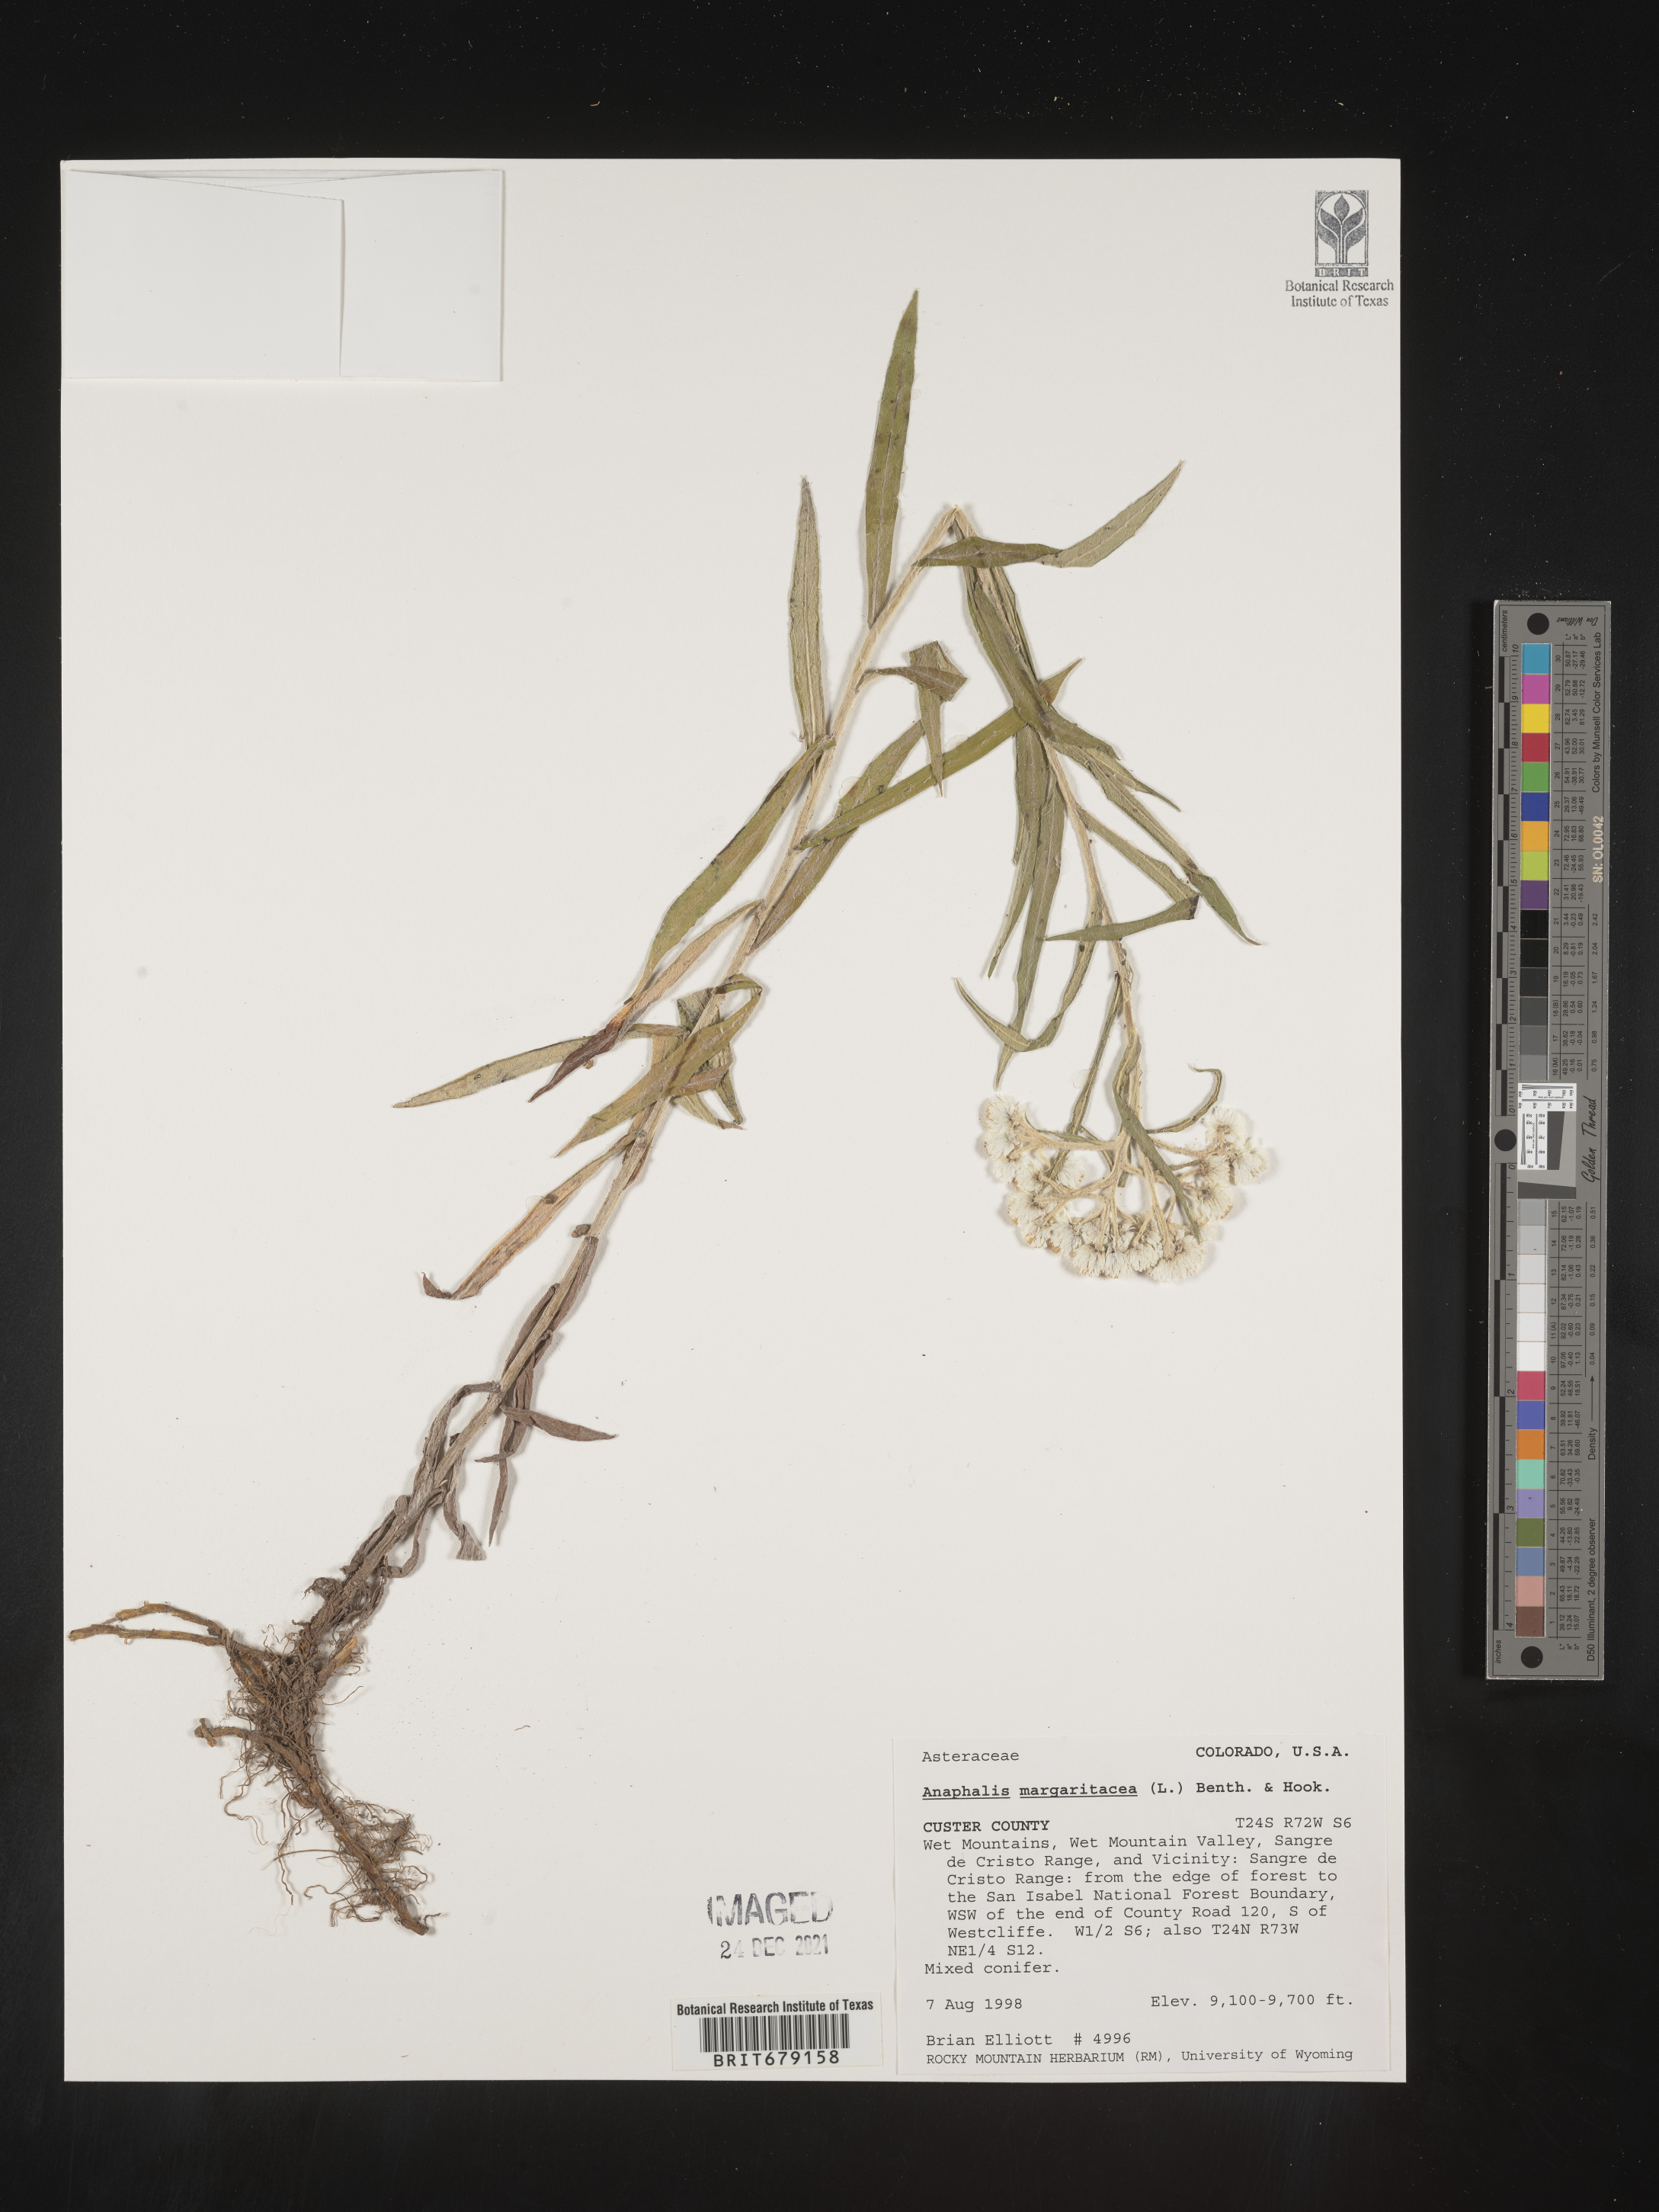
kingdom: Plantae
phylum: Tracheophyta
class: Magnoliopsida
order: Asterales
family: Asteraceae
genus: Anaphalis
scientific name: Anaphalis margaritacea
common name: Pearly everlasting
